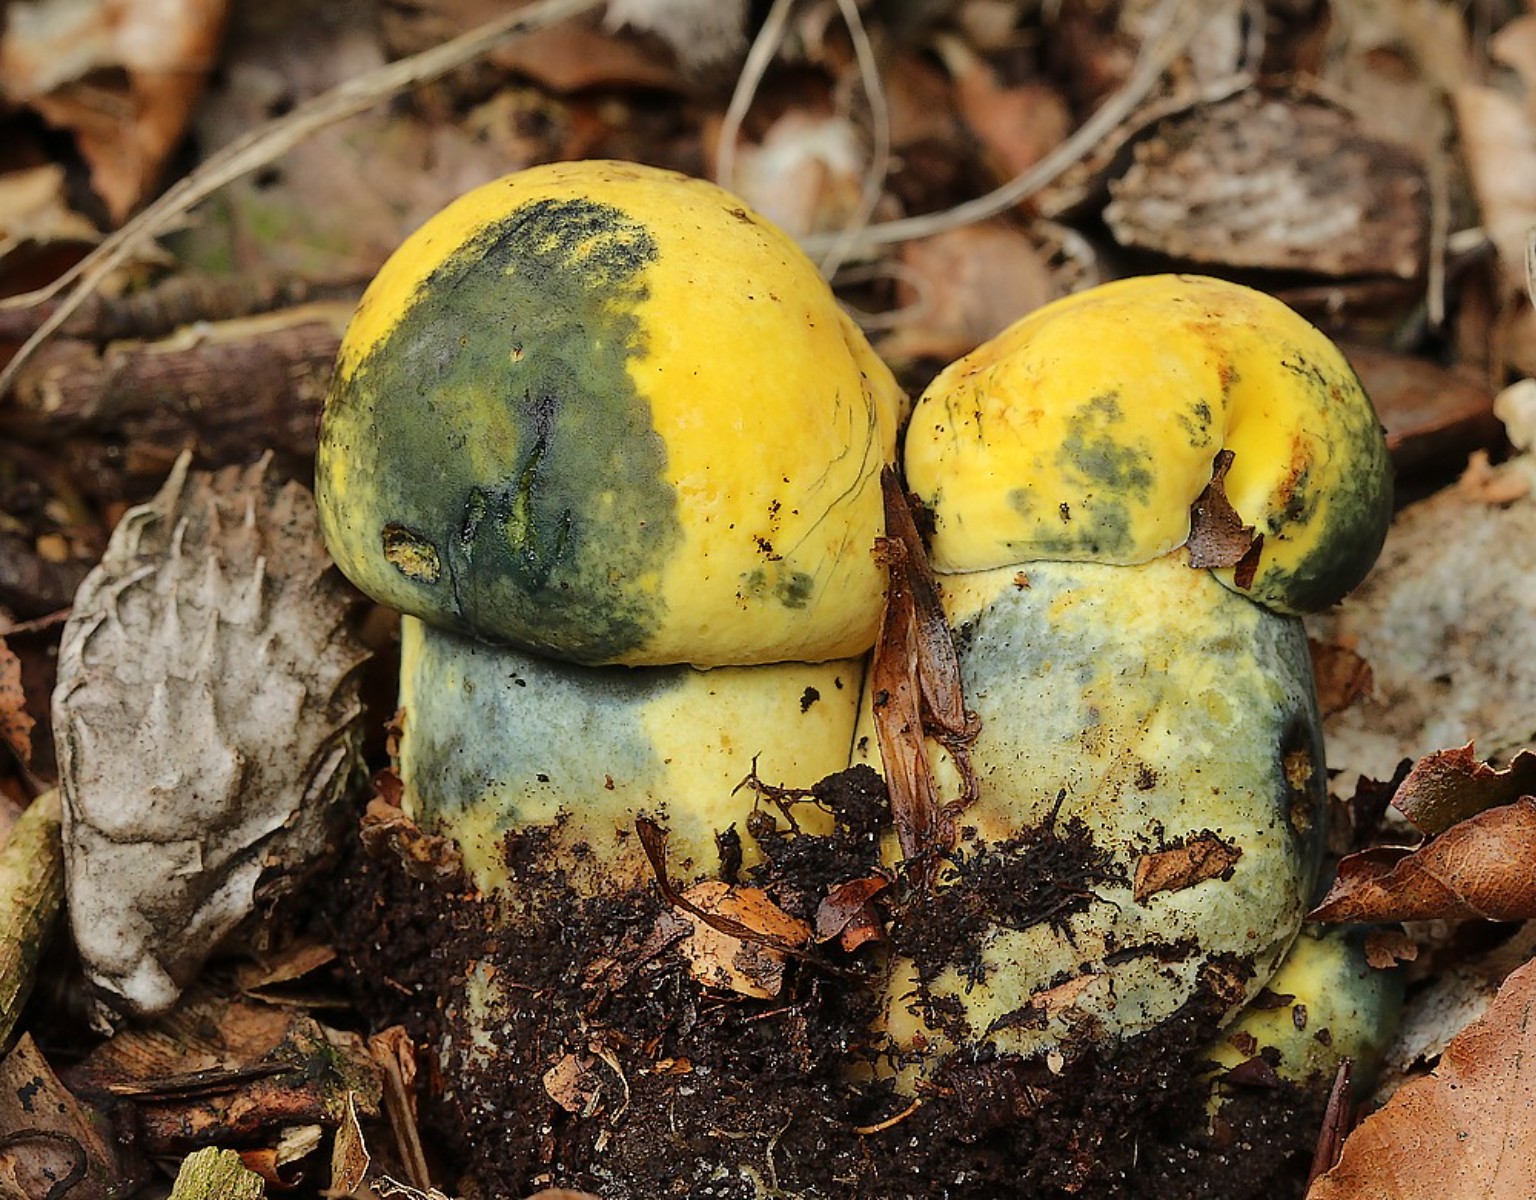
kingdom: Fungi
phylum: Basidiomycota
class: Agaricomycetes
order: Boletales
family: Boletaceae
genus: Neoboletus
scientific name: Neoboletus erythropus
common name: punktstokket indigorørhat
